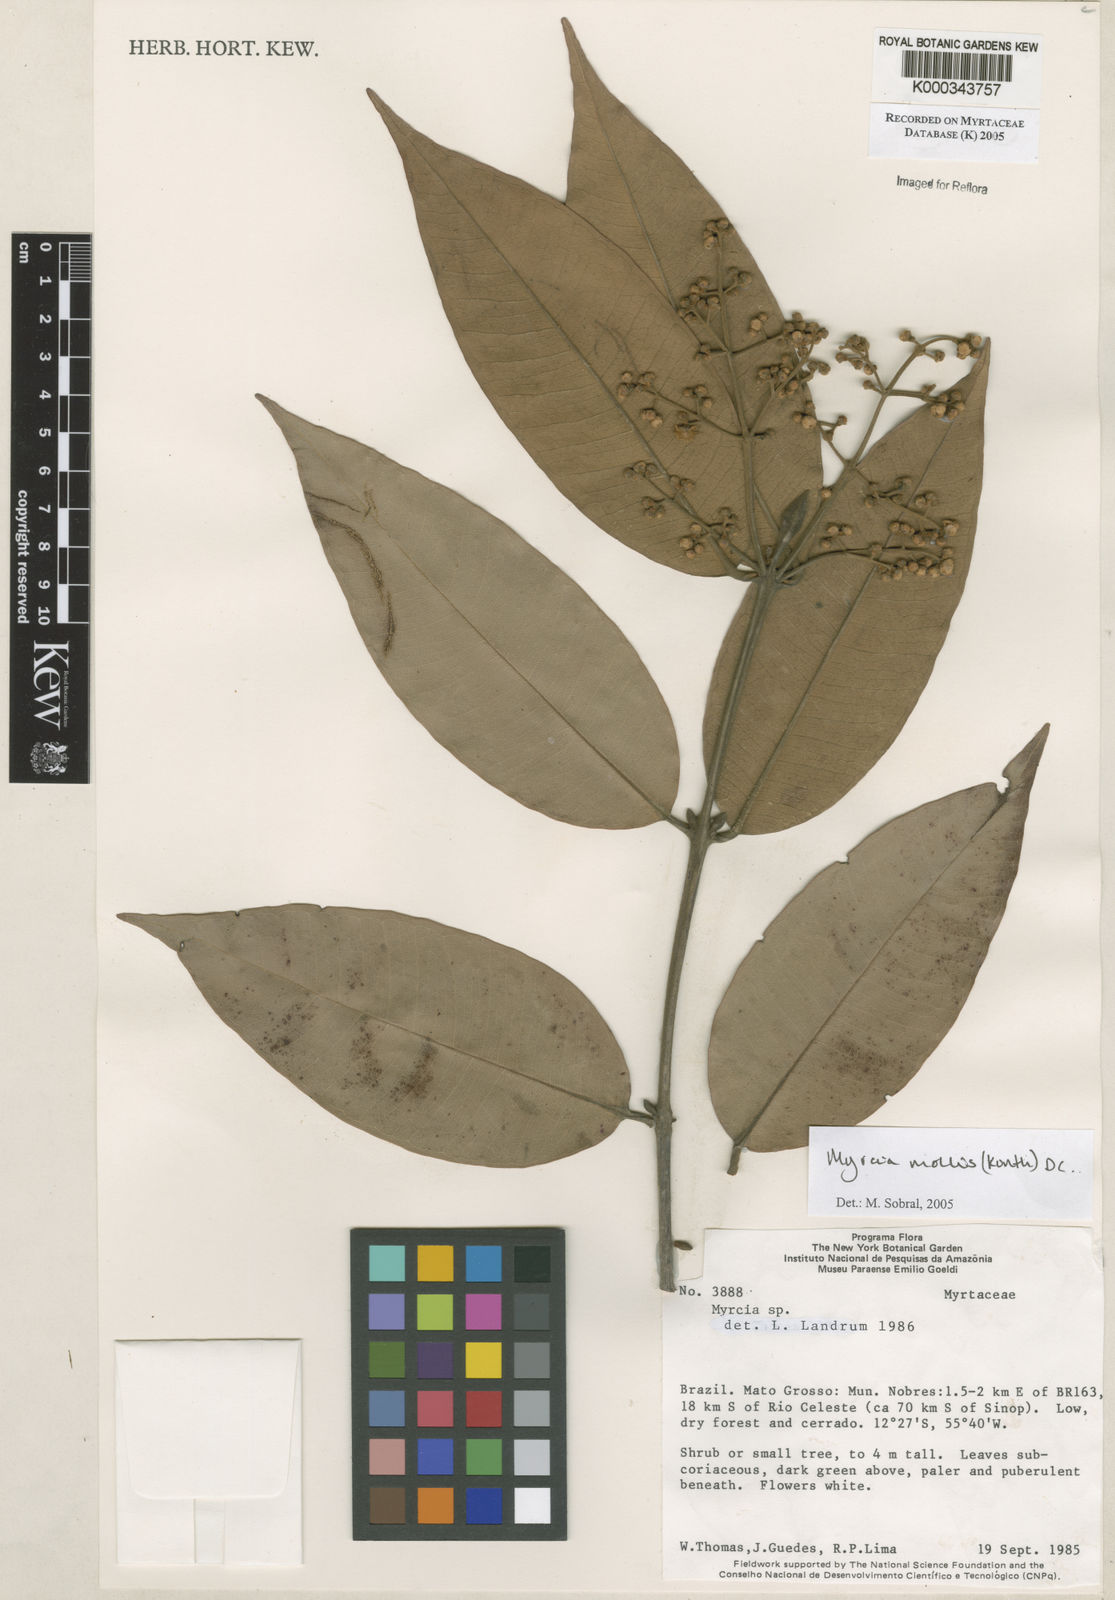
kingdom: Plantae
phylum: Tracheophyta
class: Magnoliopsida
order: Myrtales
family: Myrtaceae
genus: Myrcia
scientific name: Myrcia mollis
